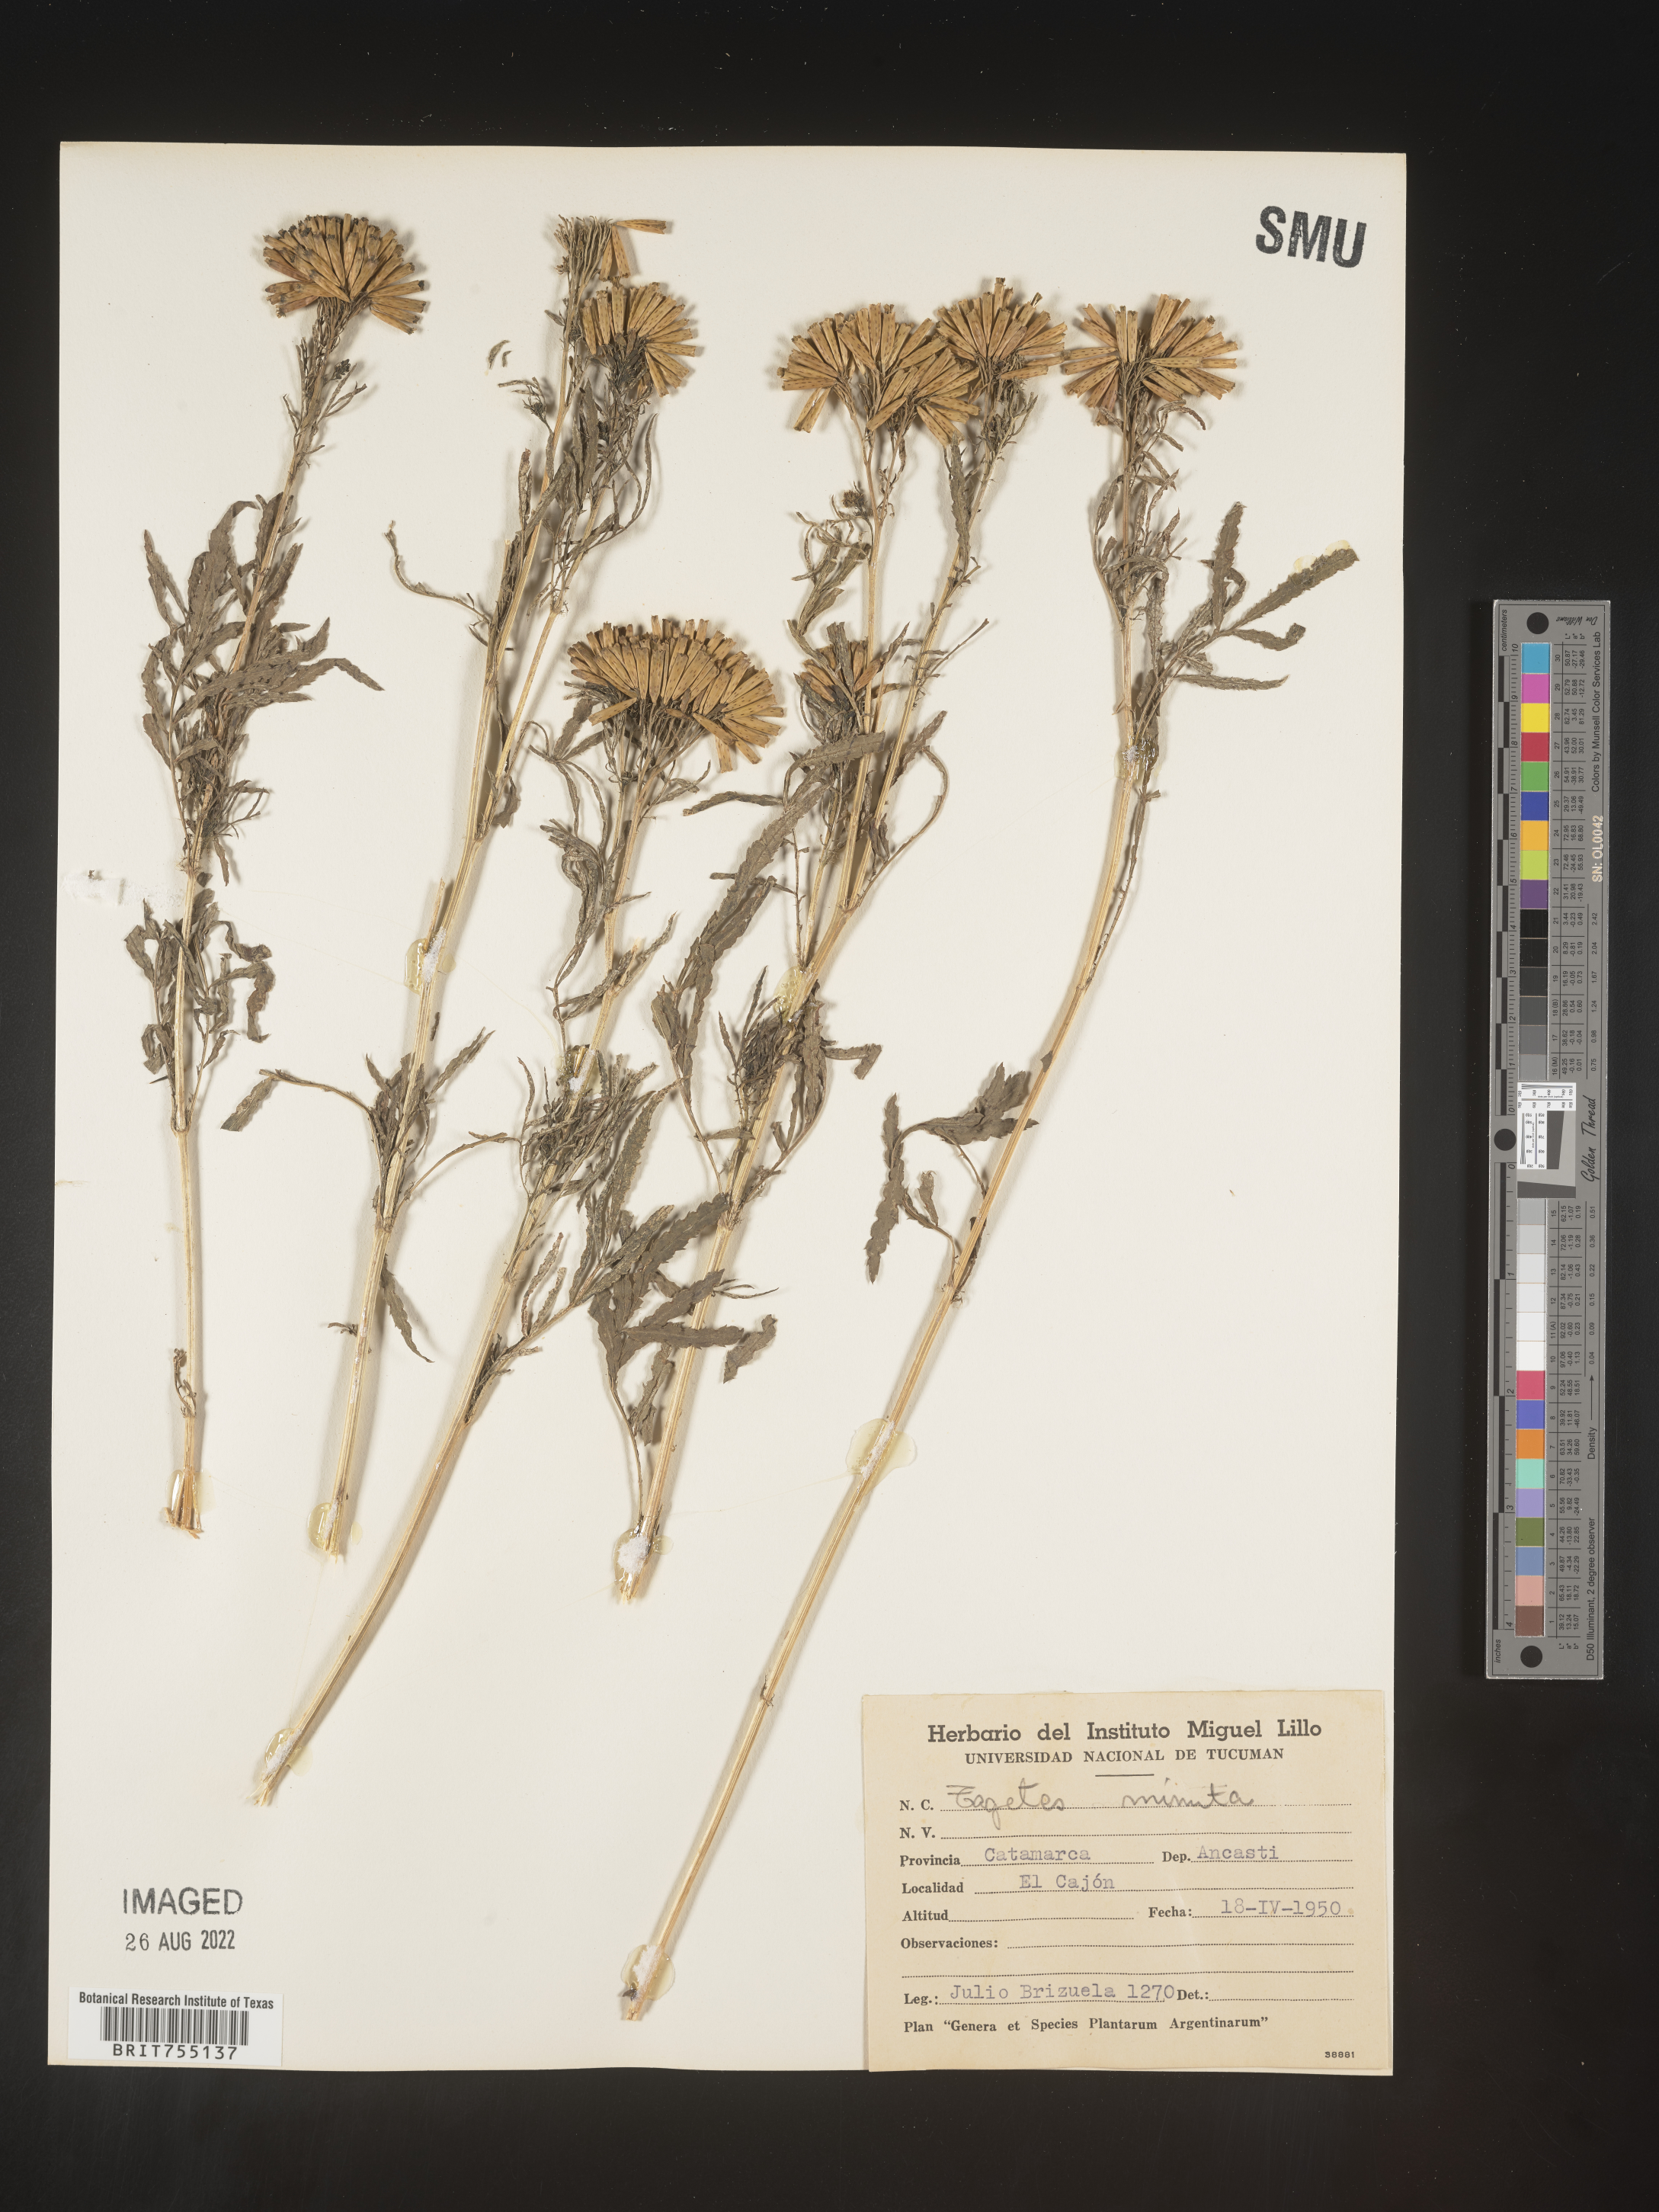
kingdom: Plantae
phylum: Tracheophyta
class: Magnoliopsida
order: Asterales
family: Asteraceae
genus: Tagetes
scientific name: Tagetes
